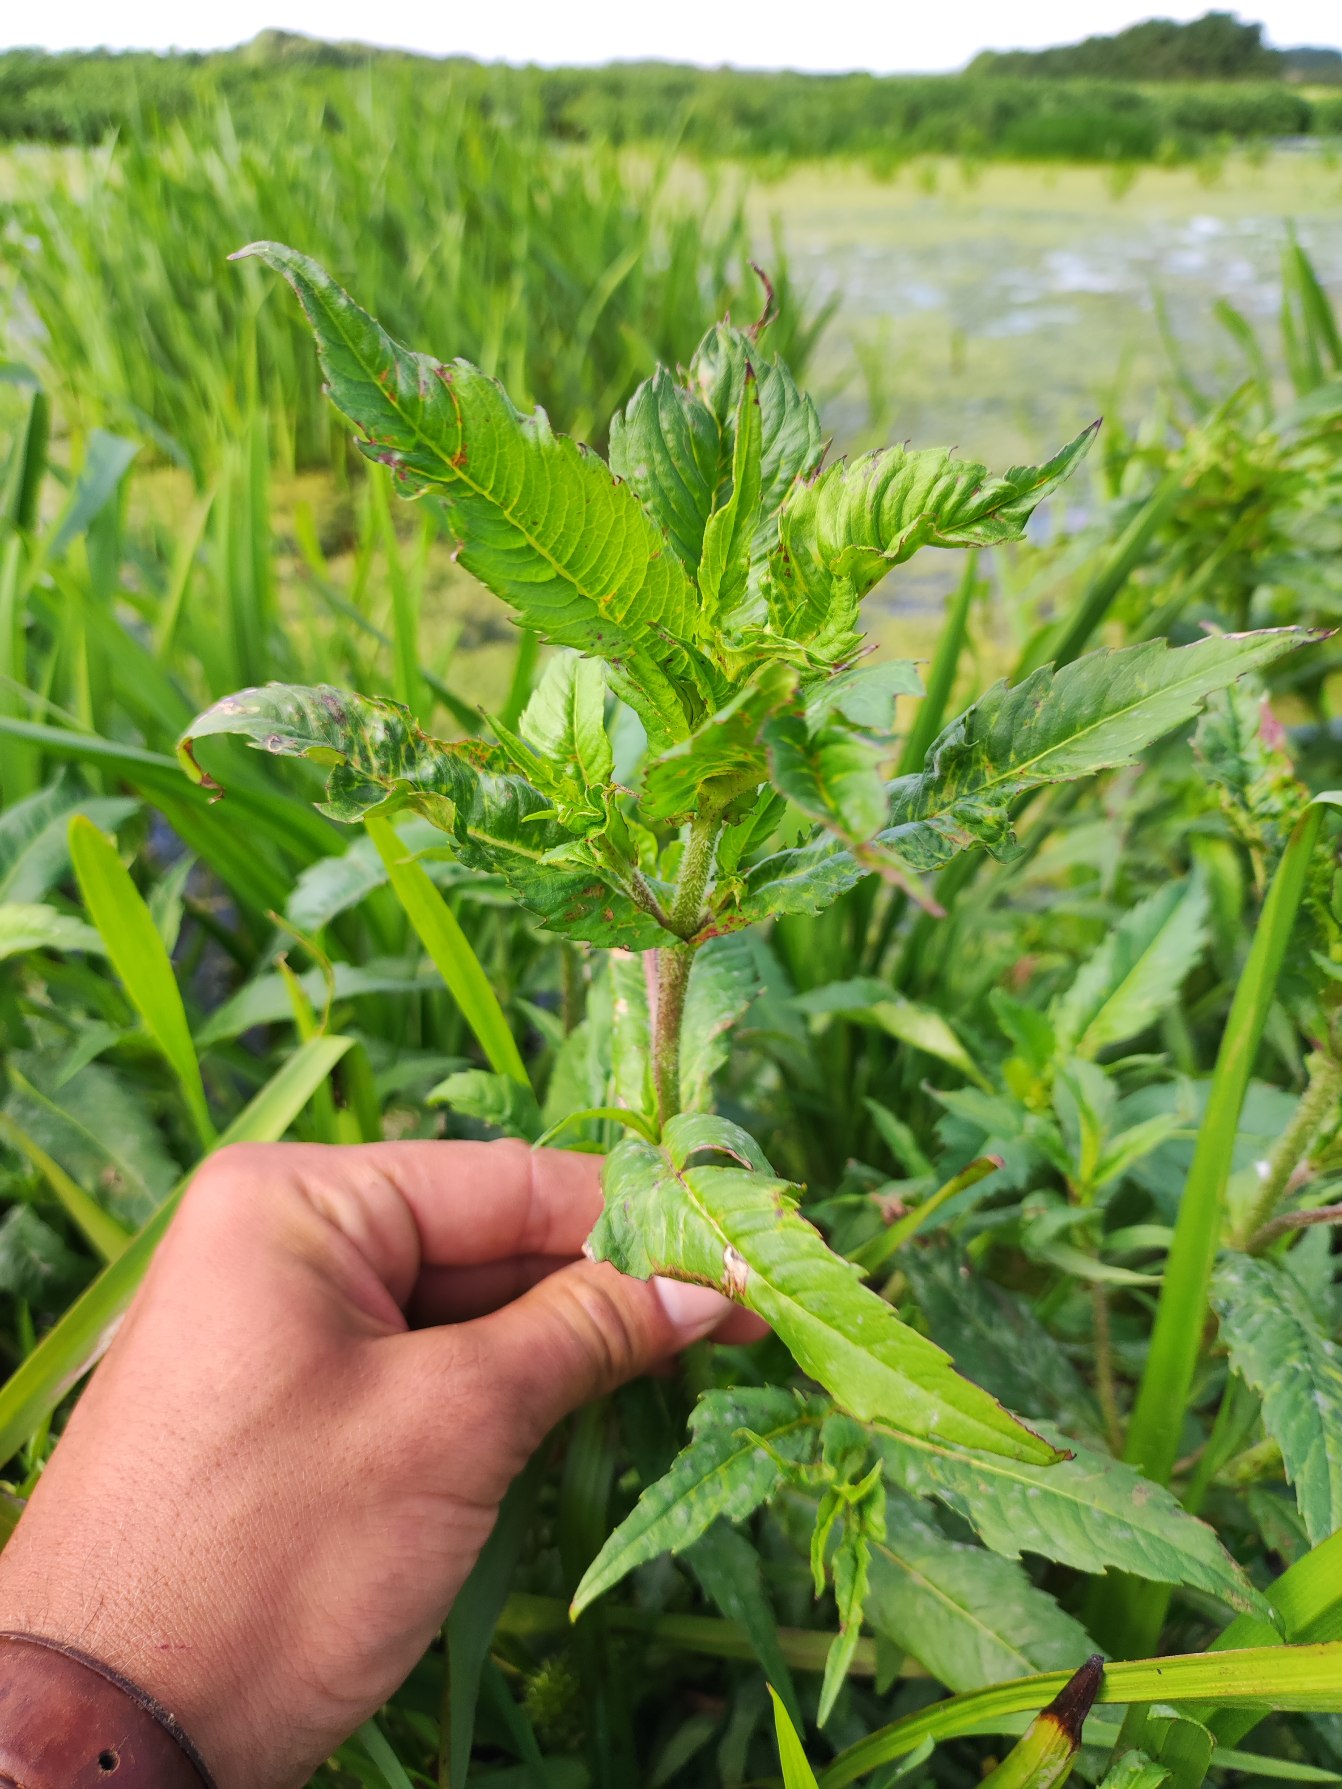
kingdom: Plantae
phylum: Tracheophyta
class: Magnoliopsida
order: Asterales
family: Asteraceae
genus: Bidens
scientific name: Bidens cernua
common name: Nikkende brøndsel
